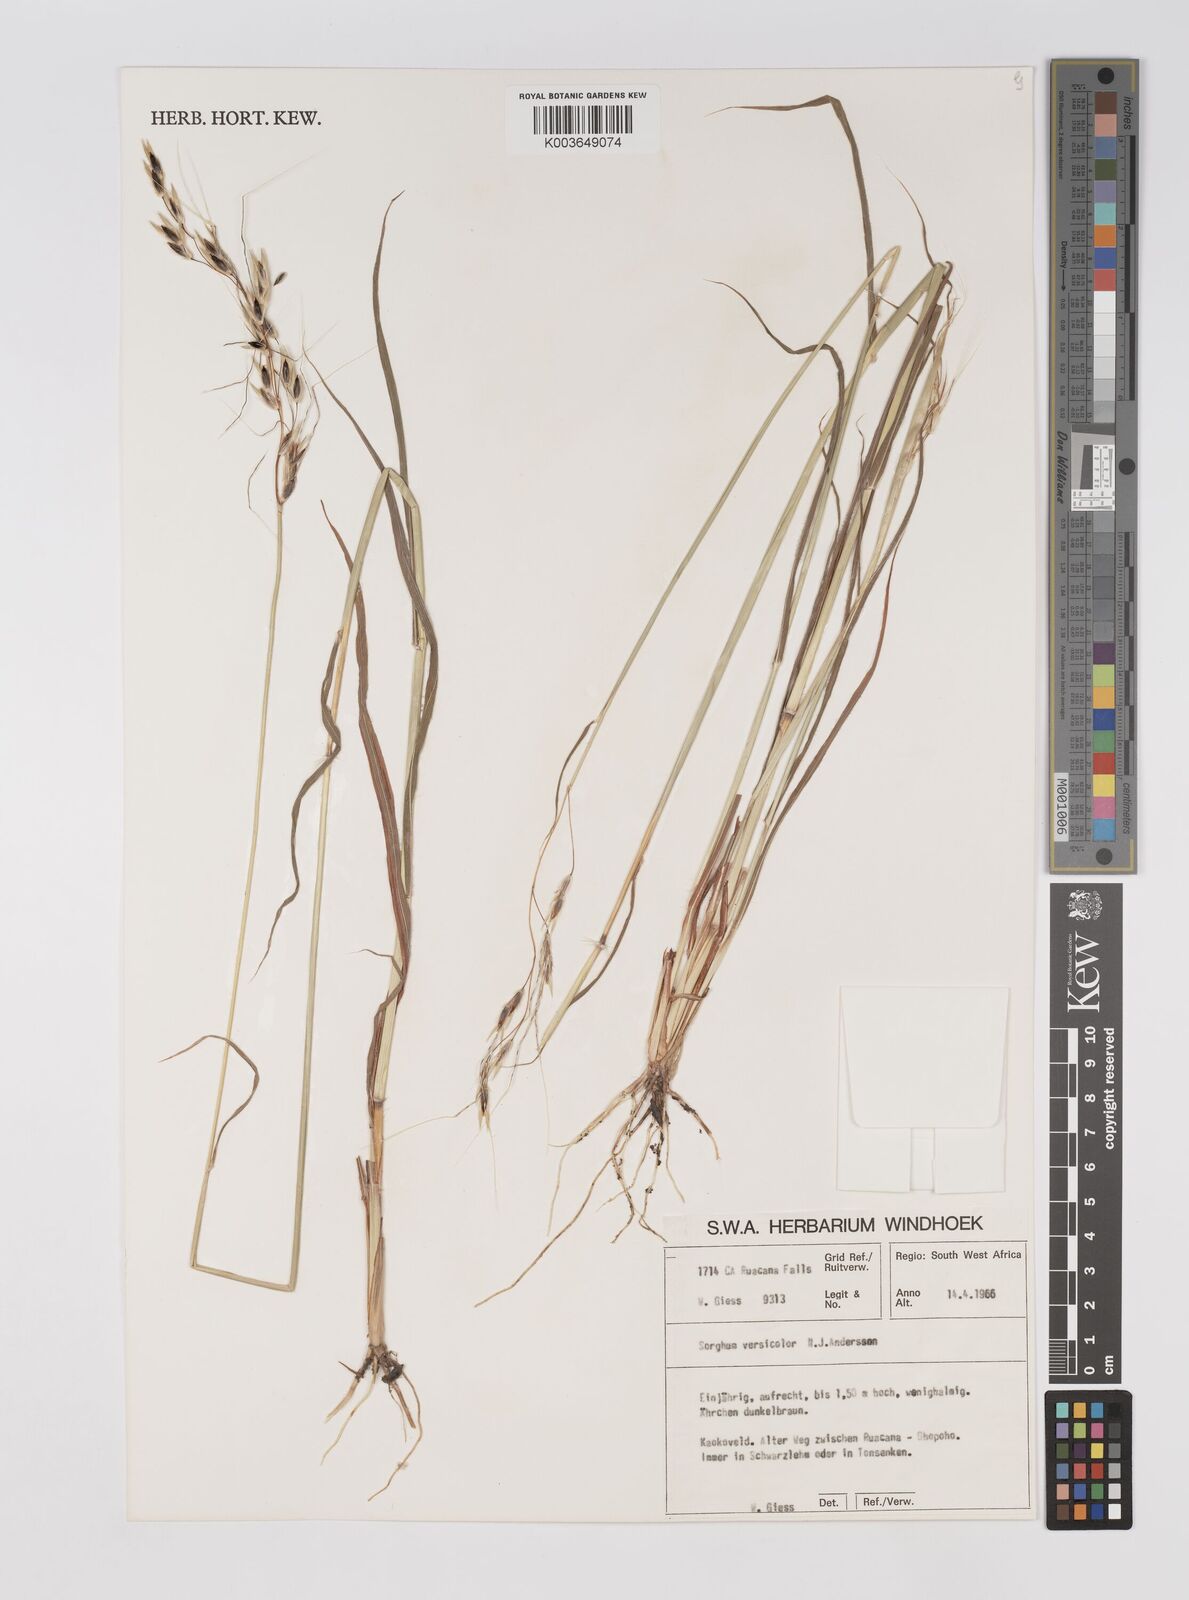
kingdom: Plantae
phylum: Tracheophyta
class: Liliopsida
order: Poales
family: Poaceae
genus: Sarga
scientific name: Sarga versicolor
